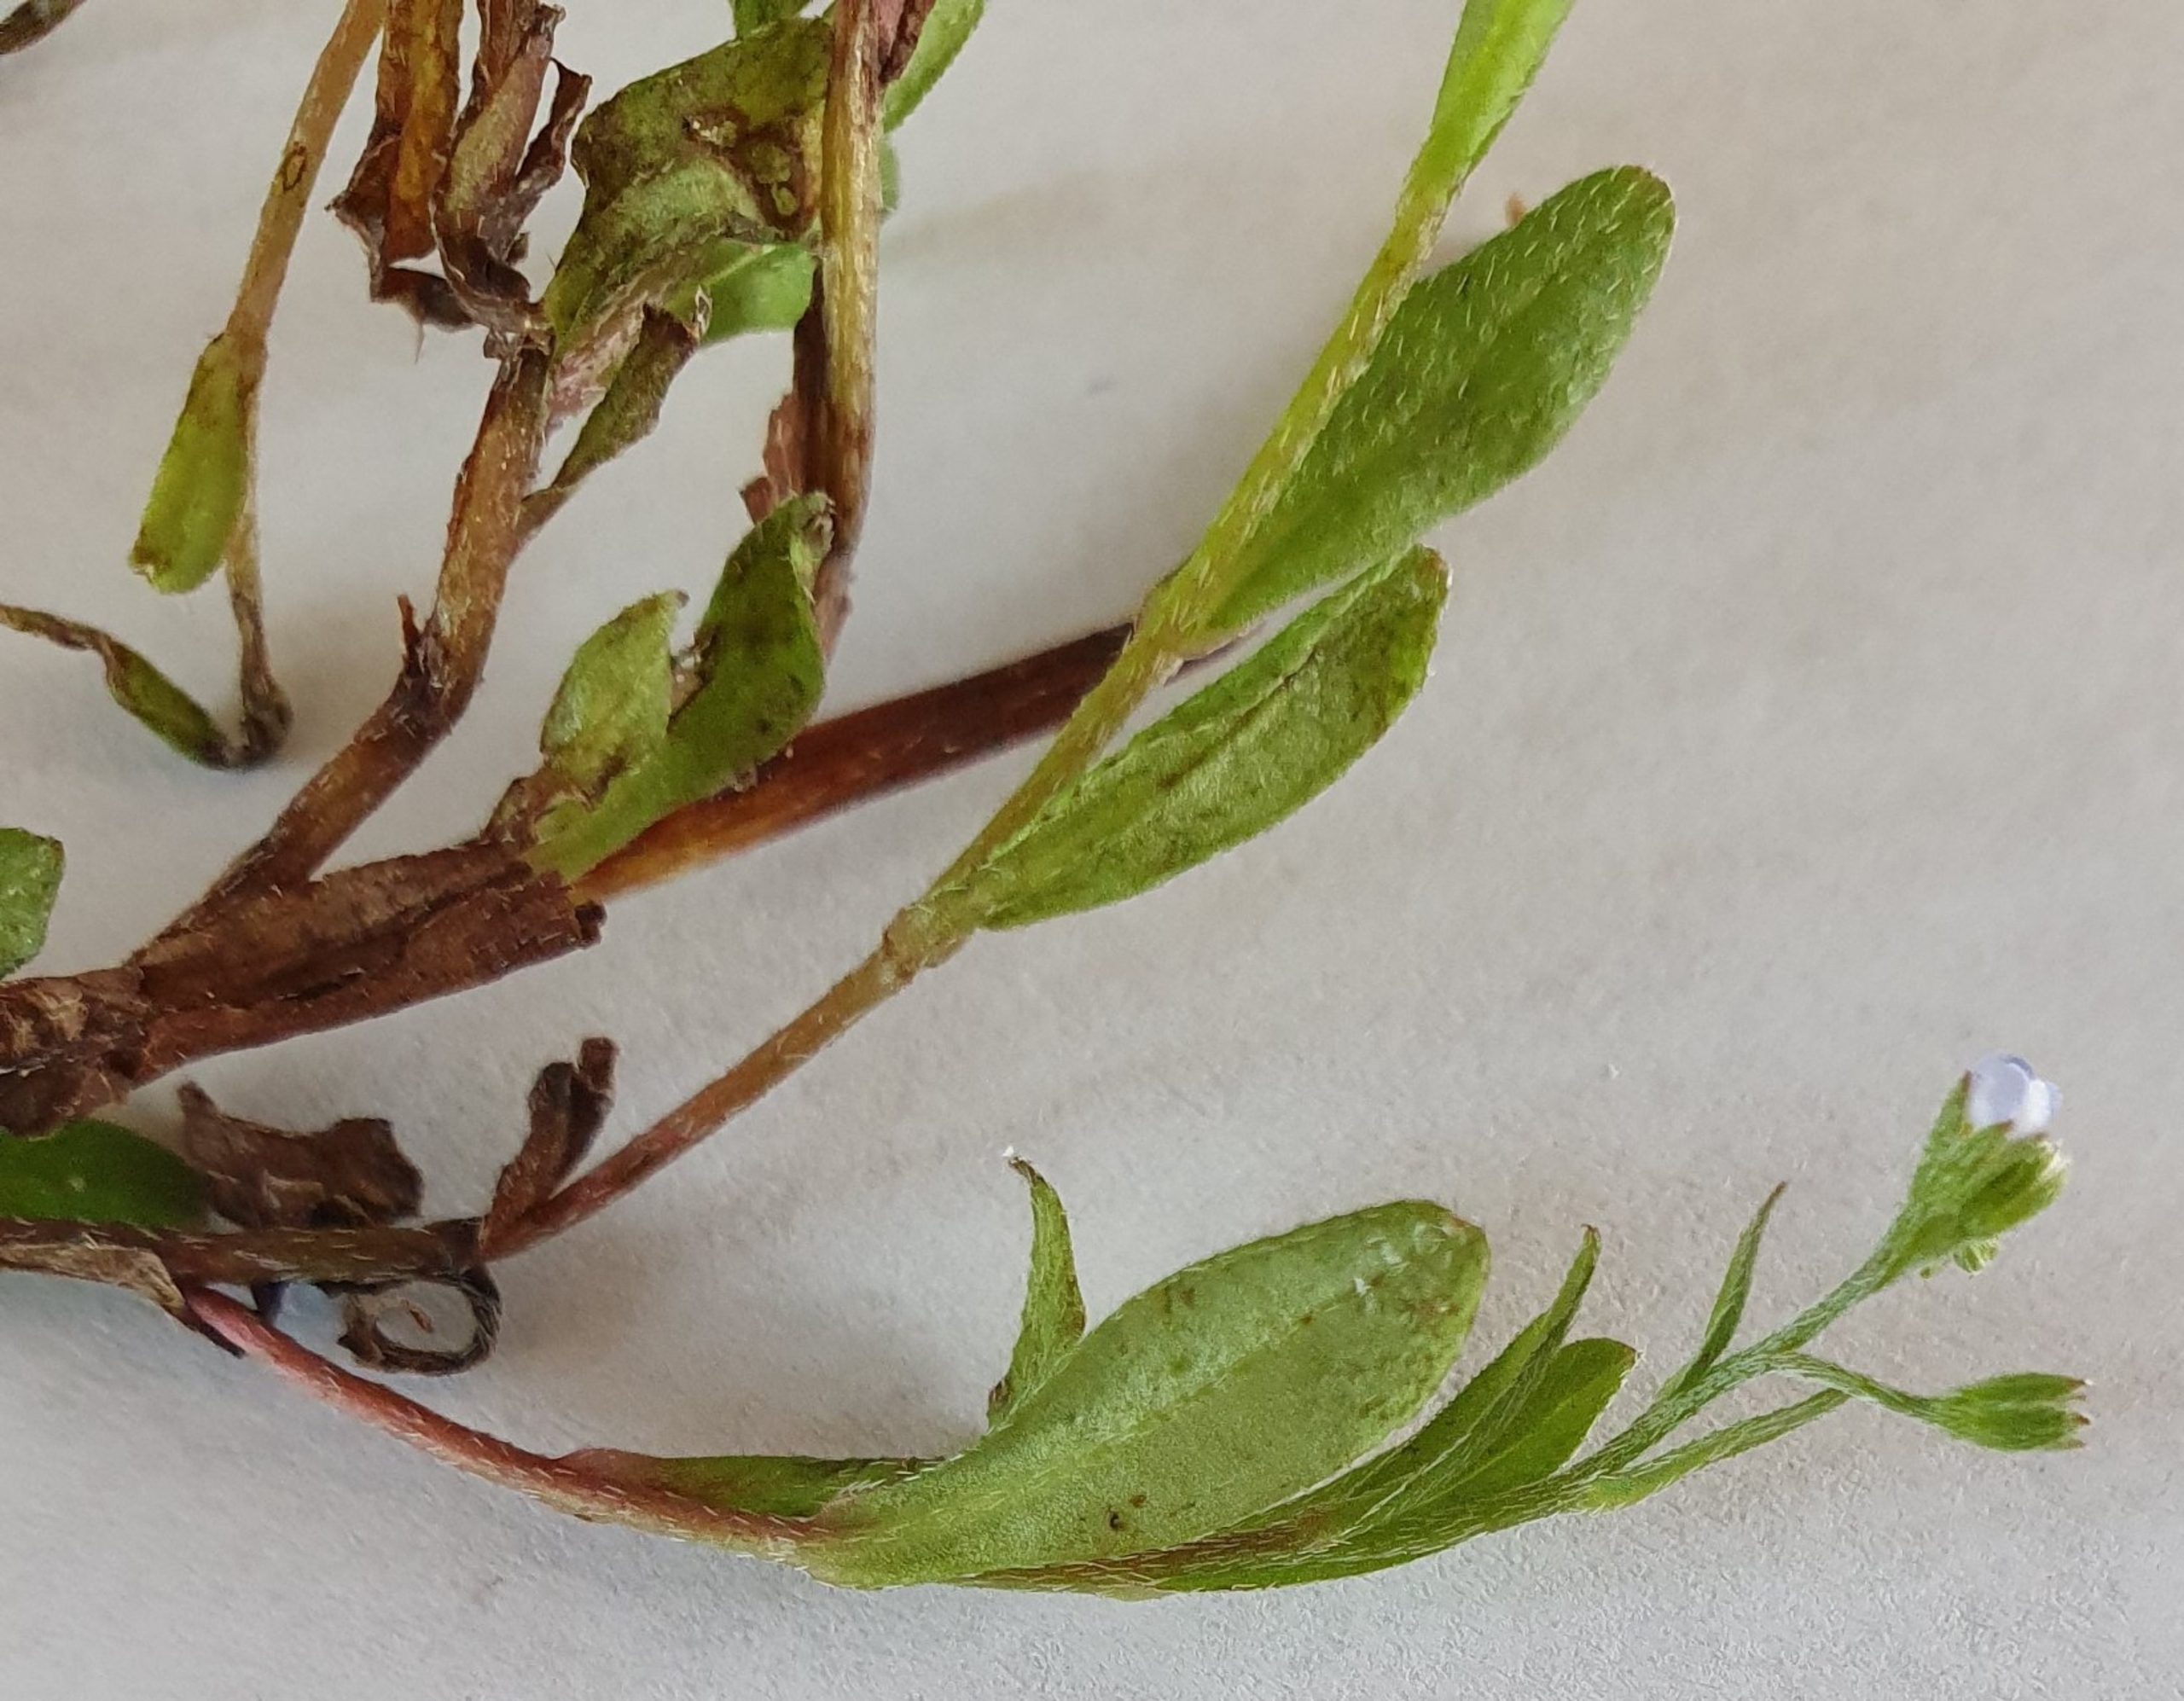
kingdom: Plantae
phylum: Tracheophyta
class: Magnoliopsida
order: Boraginales
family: Boraginaceae
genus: Myosotis
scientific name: Myosotis laxa
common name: Sump-forglemmigej
